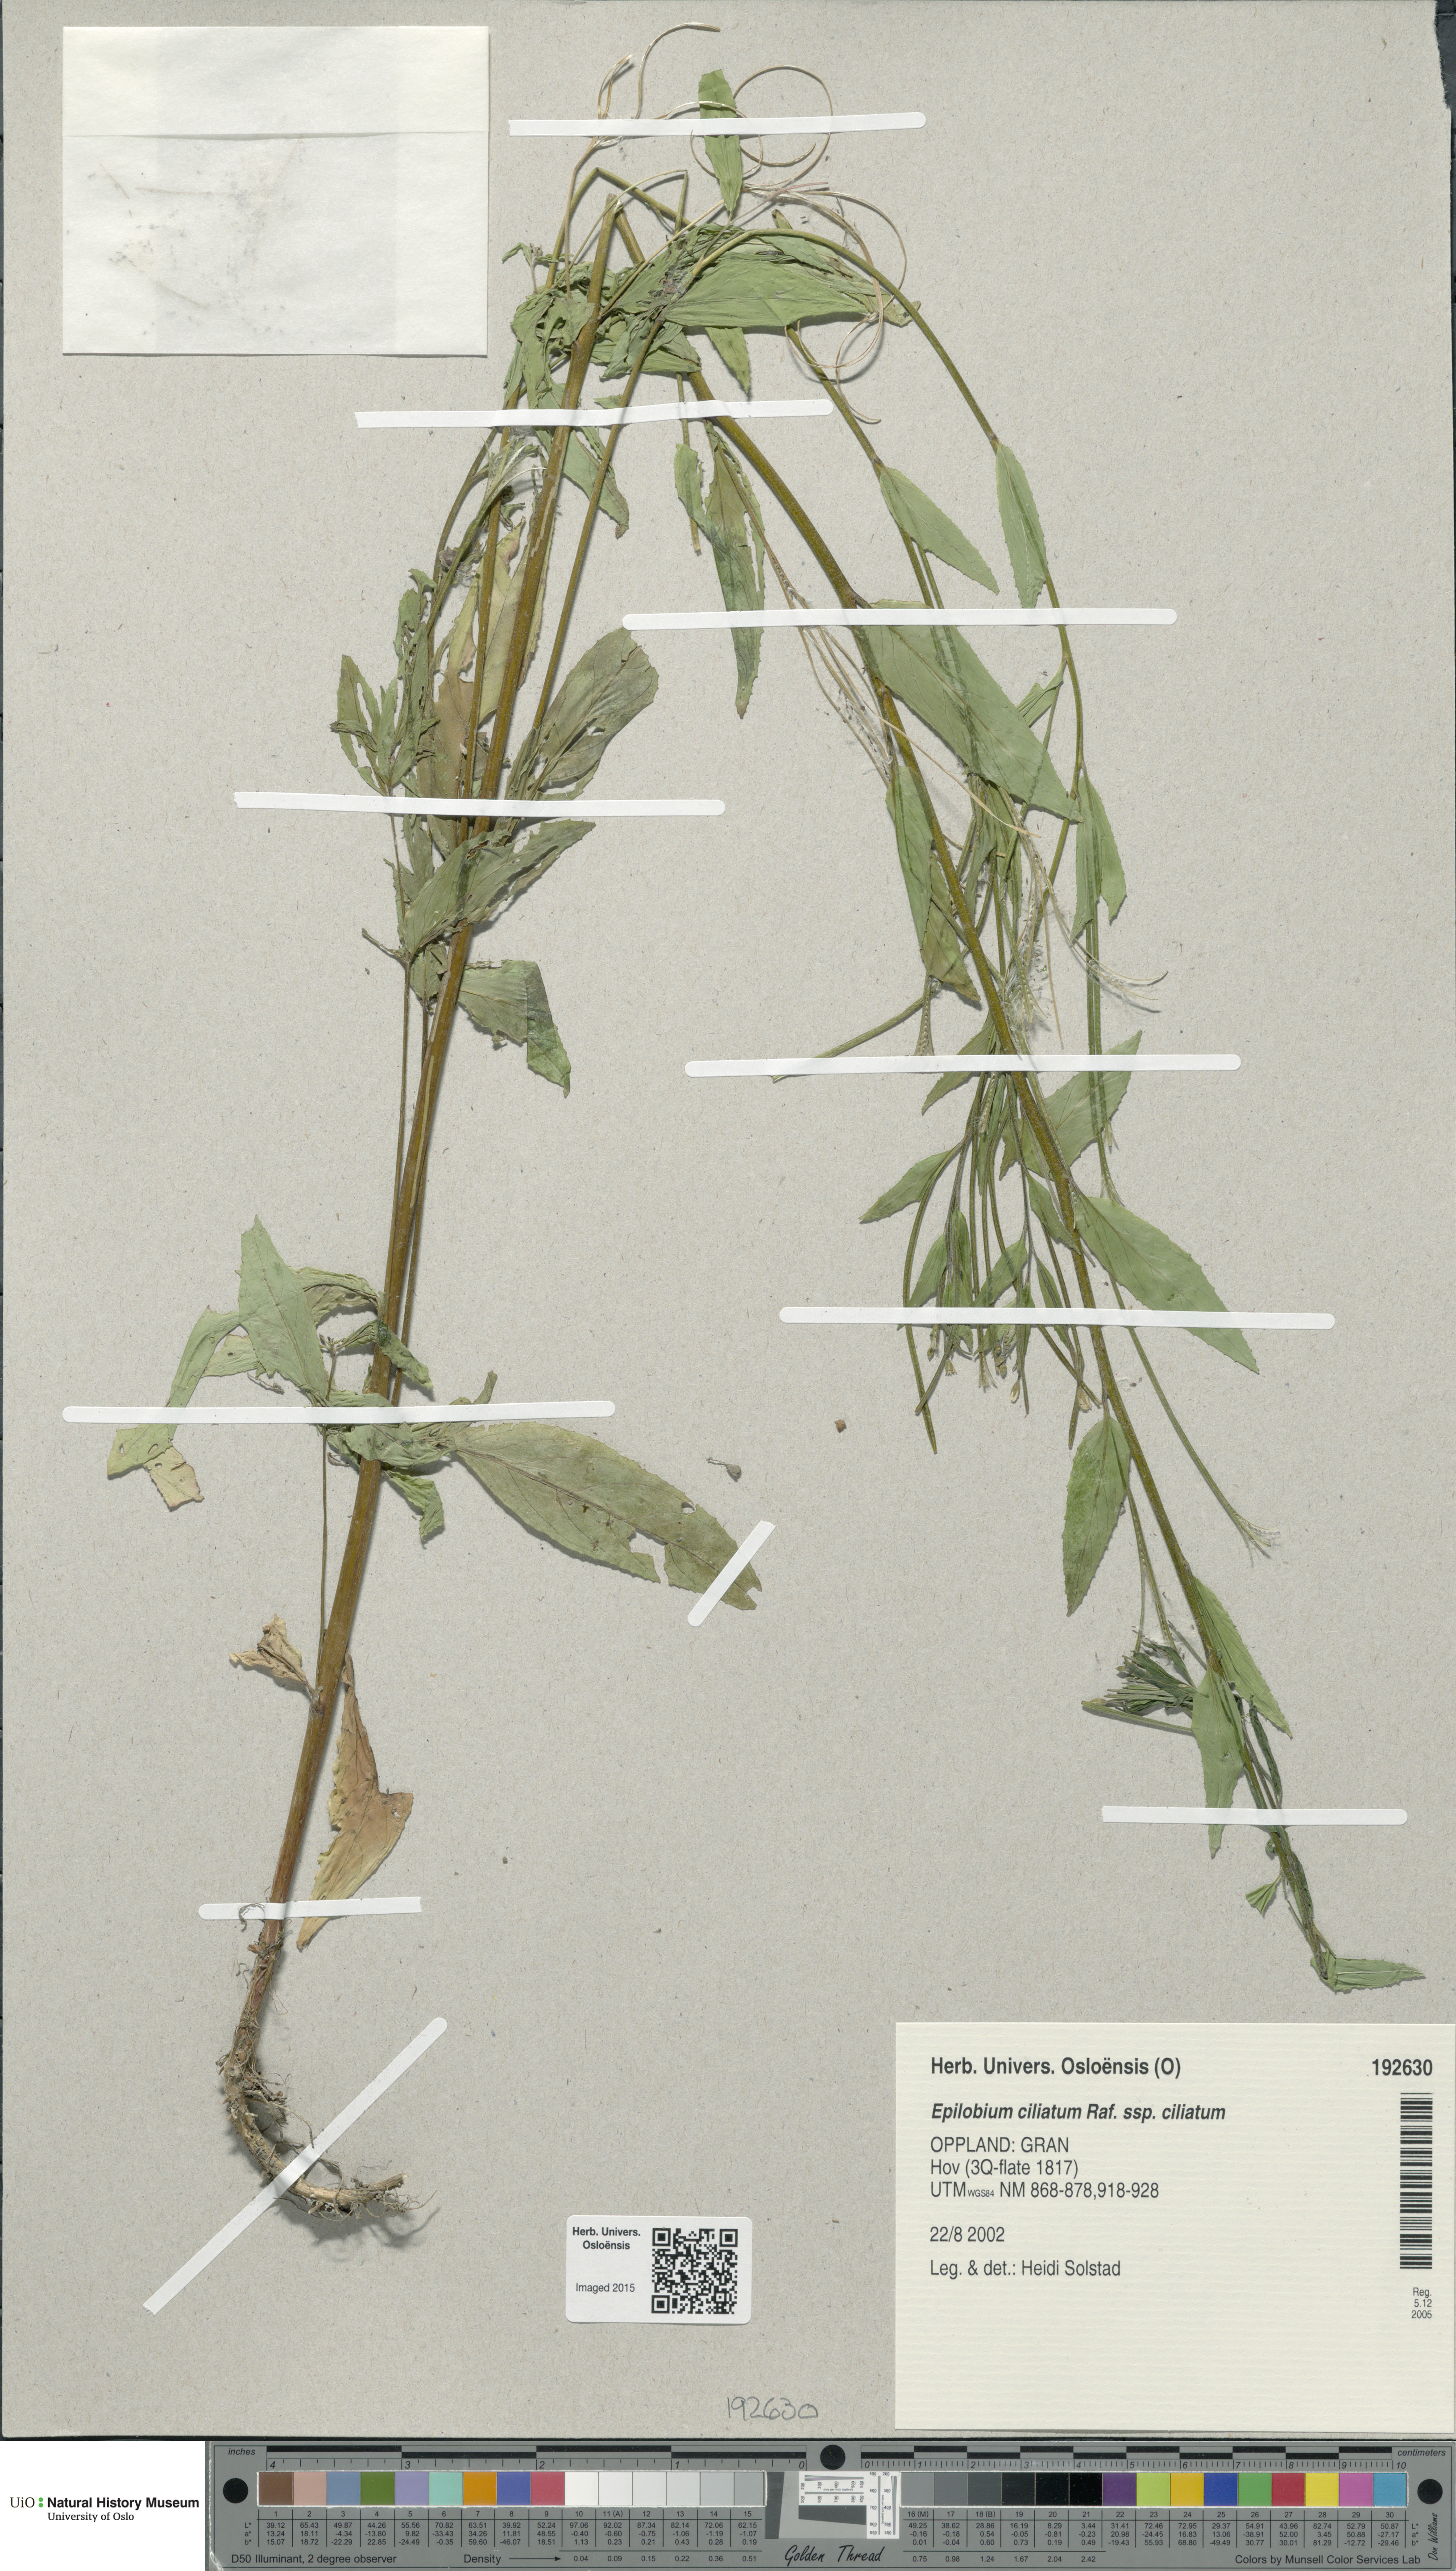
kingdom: Plantae
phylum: Tracheophyta
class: Magnoliopsida
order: Myrtales
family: Onagraceae
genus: Epilobium
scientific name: Epilobium ciliatum
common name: American willowherb
